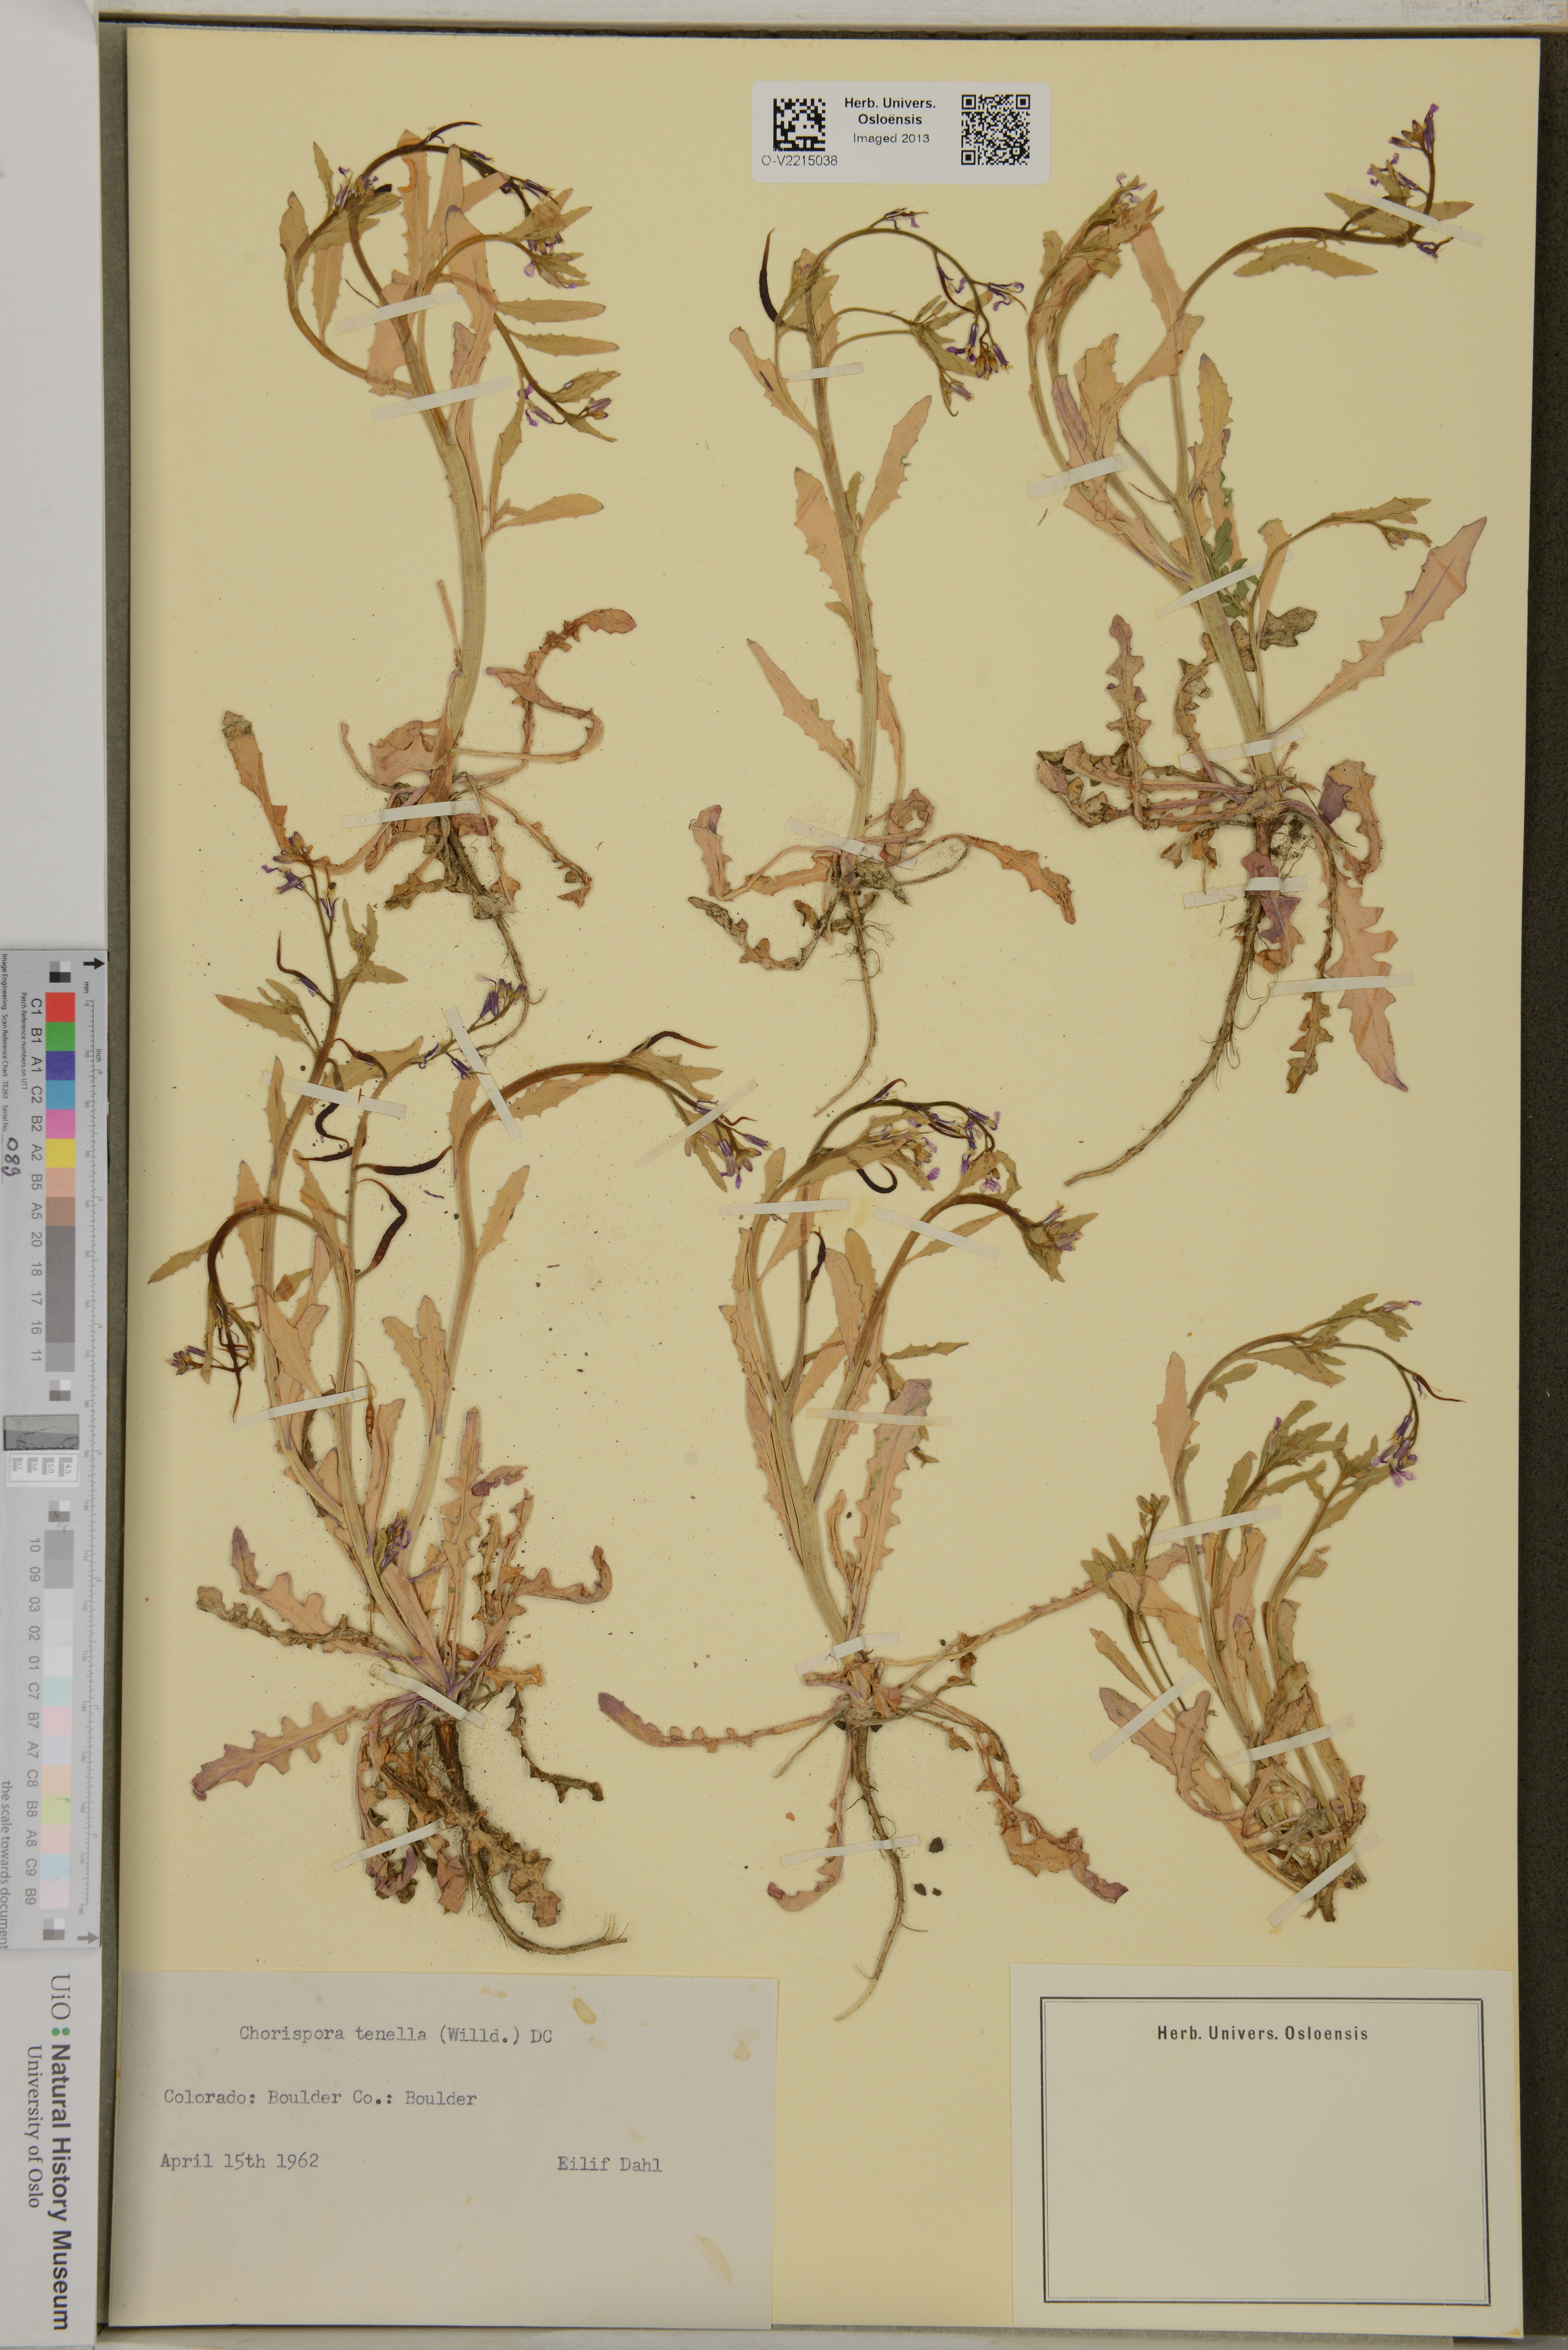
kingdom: Plantae
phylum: Tracheophyta
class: Magnoliopsida
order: Brassicales
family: Brassicaceae
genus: Chorispora
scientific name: Chorispora tenella
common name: Crossflower
